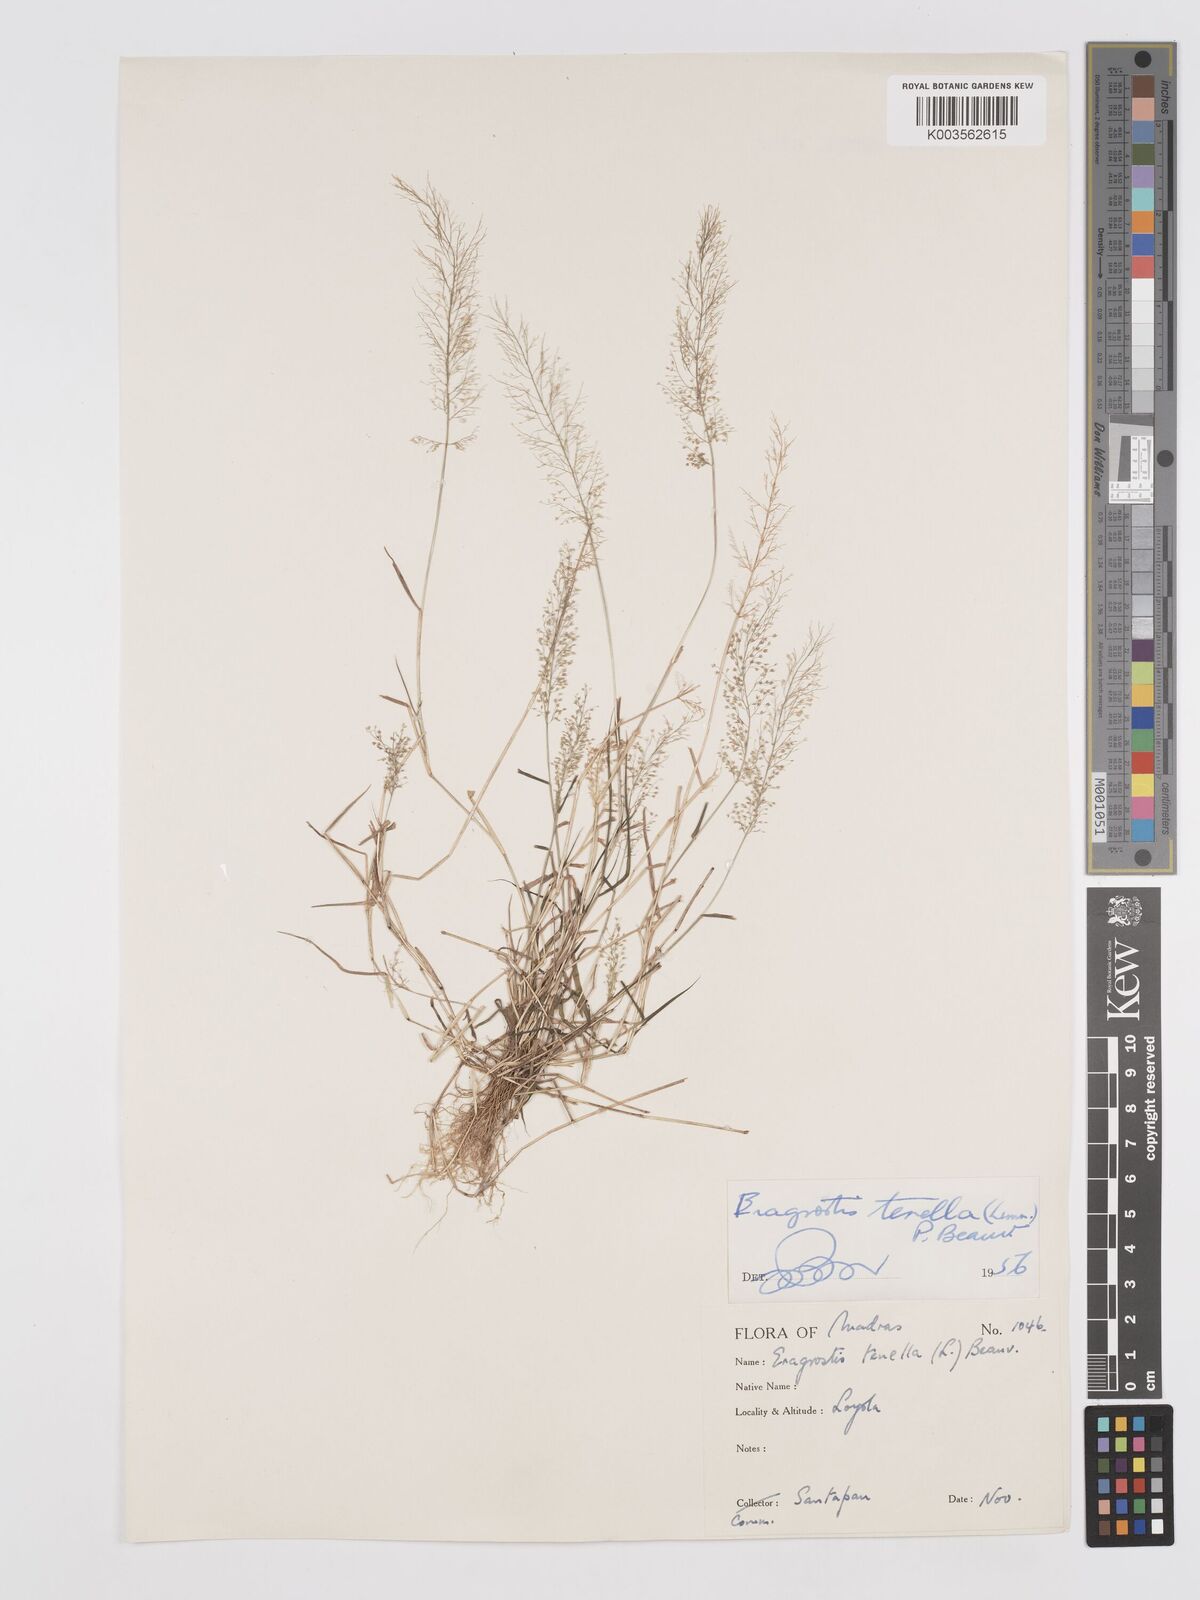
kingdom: Plantae
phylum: Tracheophyta
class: Liliopsida
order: Poales
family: Poaceae
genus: Eragrostis
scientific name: Eragrostis tenella
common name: Japanese lovegrass
